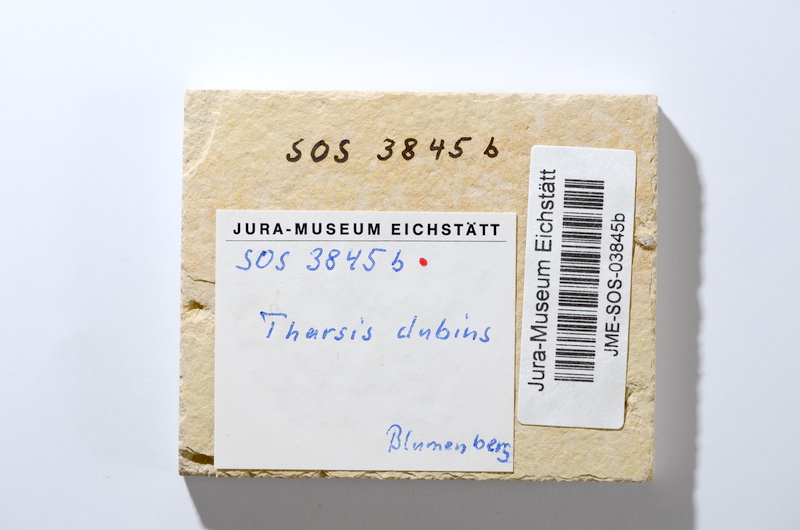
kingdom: Animalia
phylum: Chordata
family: Ascalaboidae
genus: Tharsis
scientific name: Tharsis dubius
